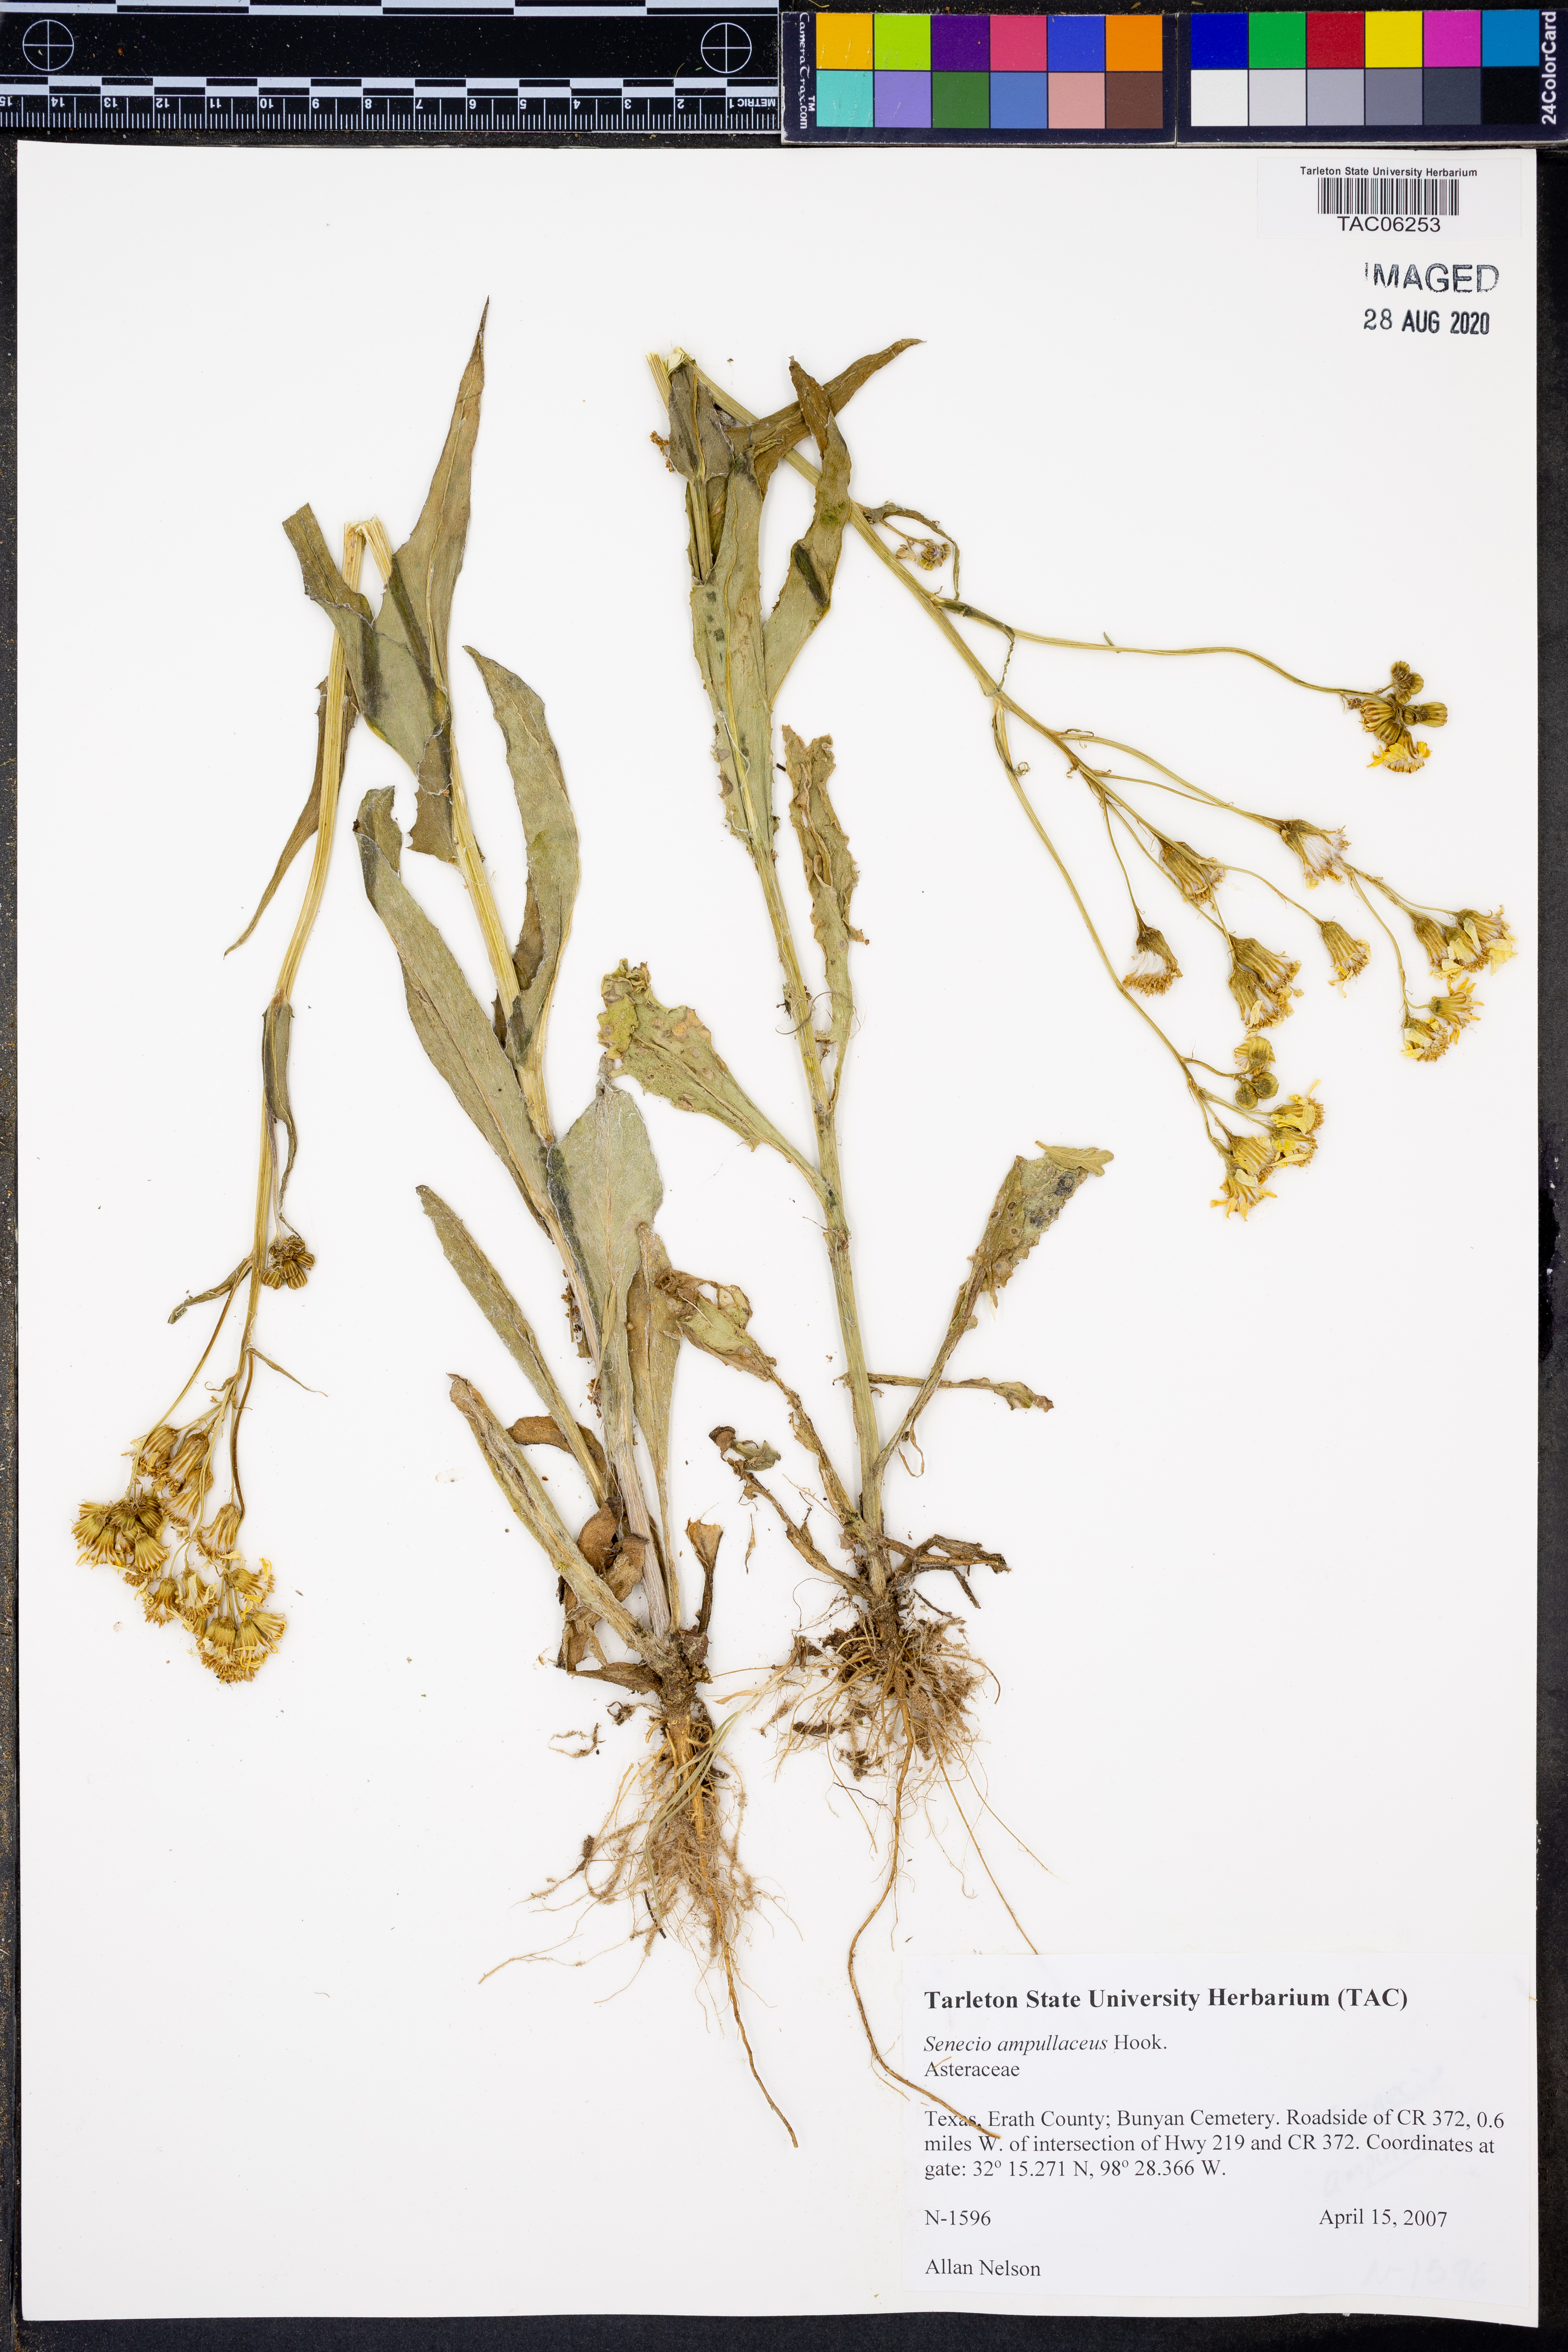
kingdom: Plantae
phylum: Tracheophyta
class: Magnoliopsida
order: Asterales
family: Asteraceae
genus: Senecio
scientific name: Senecio ampullaceus
